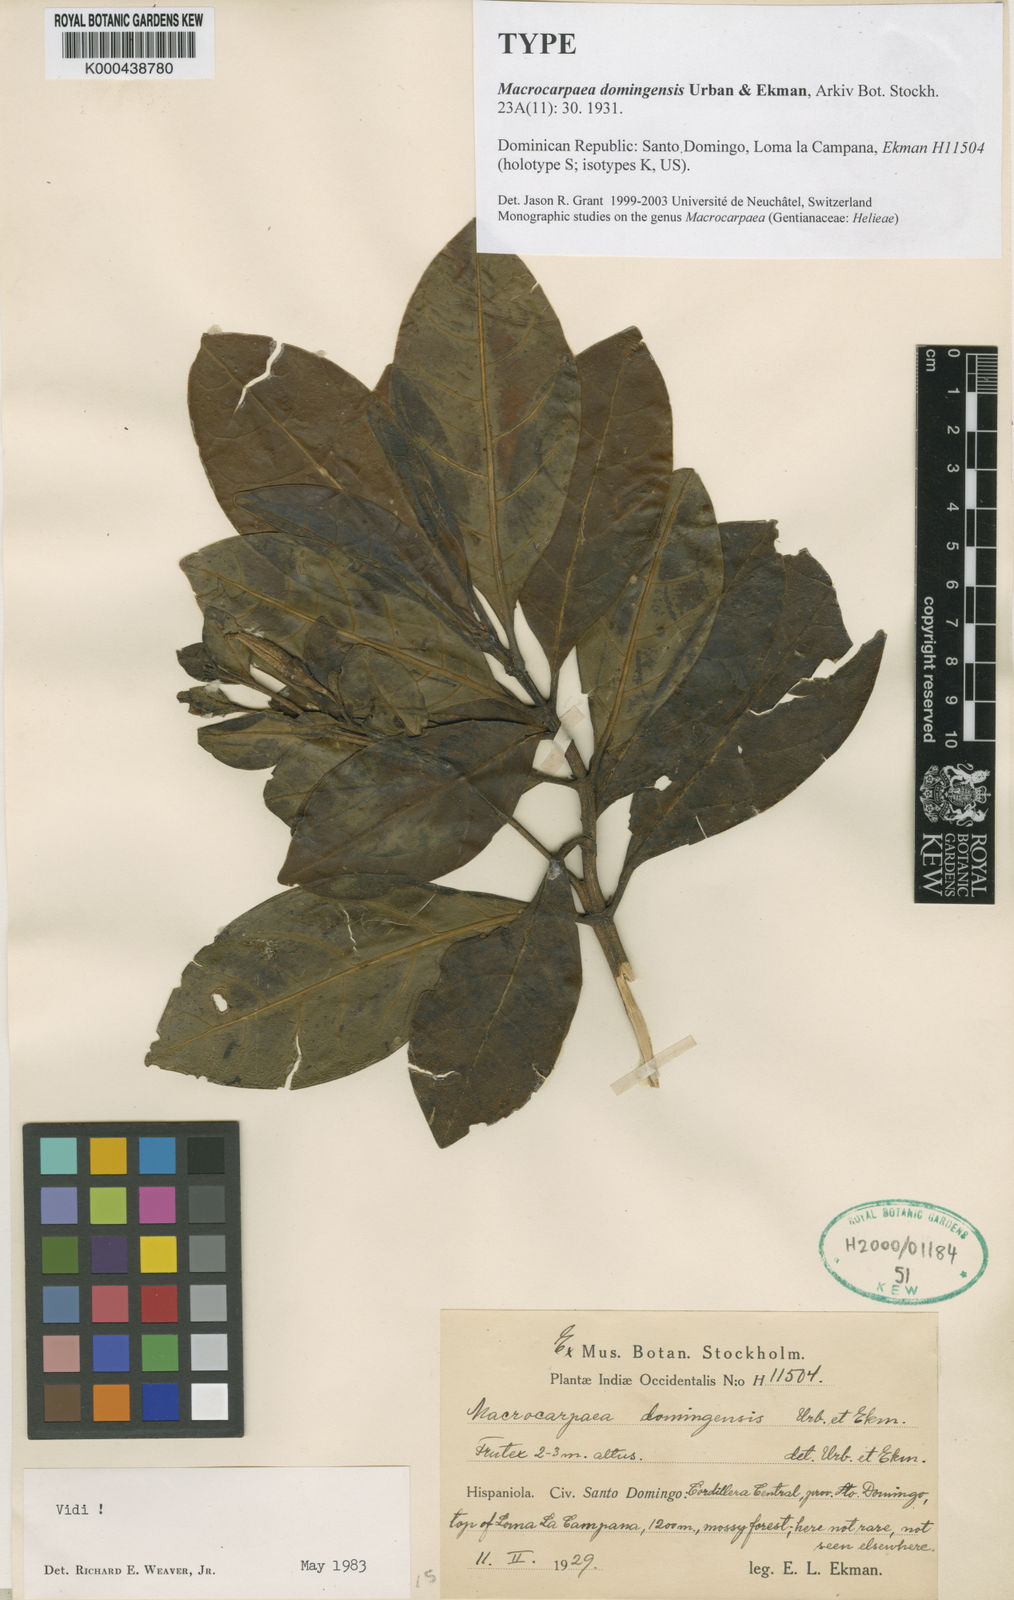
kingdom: Plantae
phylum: Tracheophyta
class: Magnoliopsida
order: Gentianales
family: Gentianaceae
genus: Macrocarpaea
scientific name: Macrocarpaea domingensis
